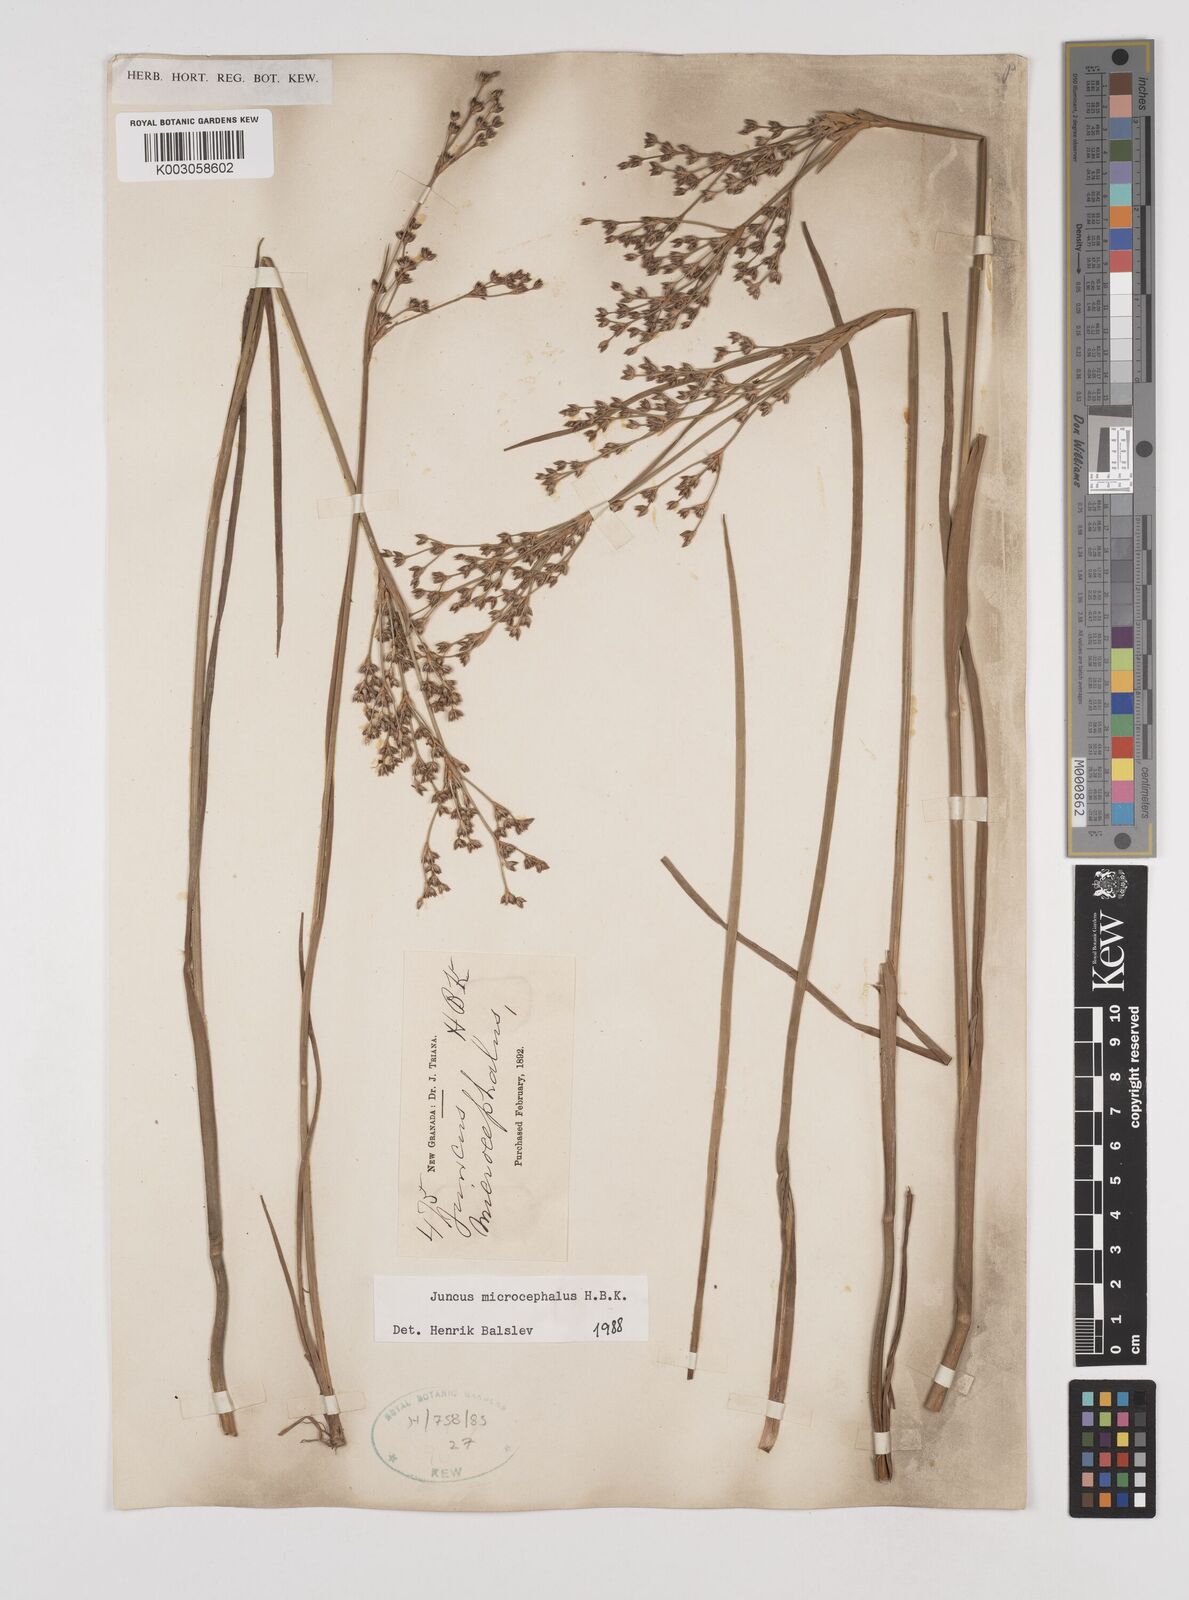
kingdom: Plantae
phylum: Tracheophyta
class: Liliopsida
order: Poales
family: Juncaceae
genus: Juncus
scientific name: Juncus
